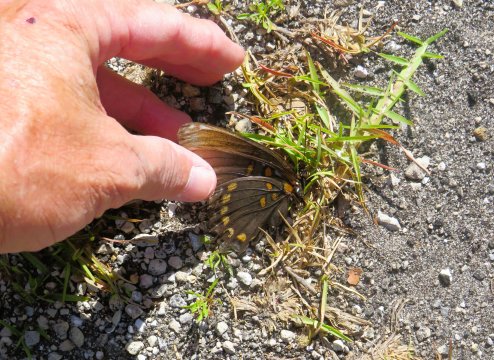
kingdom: Animalia
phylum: Arthropoda
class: Insecta
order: Lepidoptera
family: Nymphalidae
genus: Limenitis
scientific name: Limenitis arthemis
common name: Red-spotted Admiral
